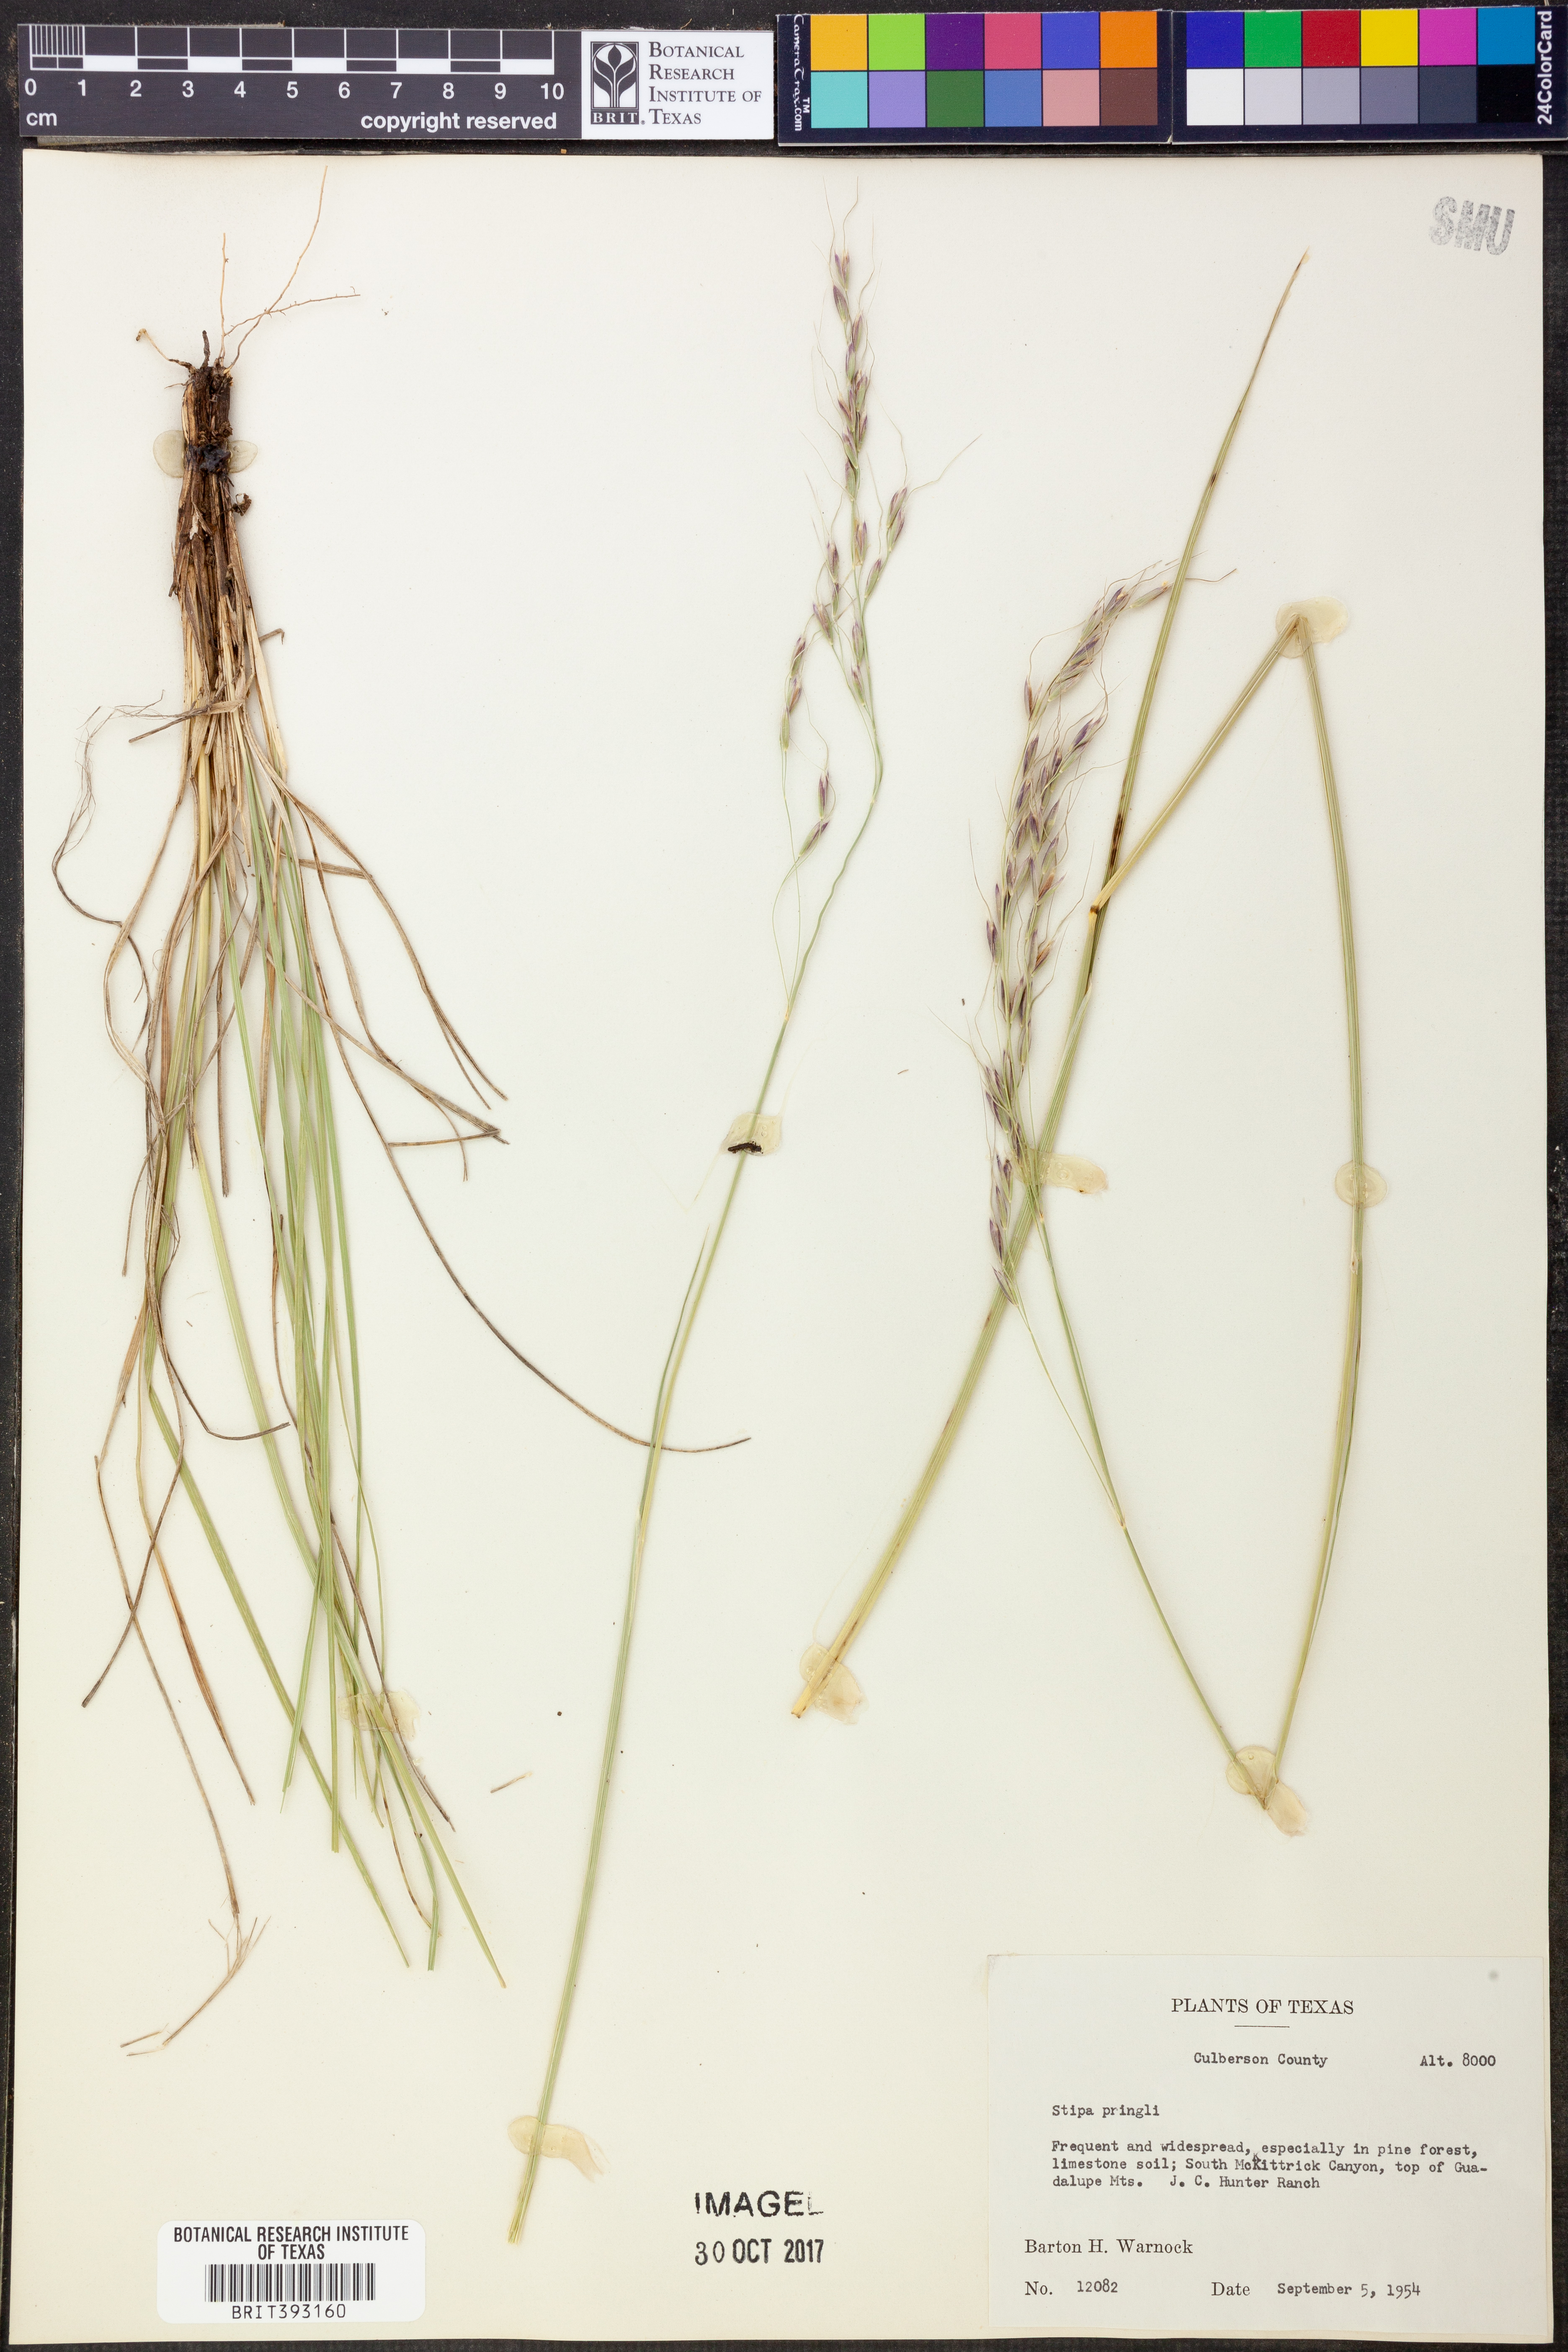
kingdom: Plantae
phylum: Tracheophyta
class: Liliopsida
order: Poales
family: Poaceae
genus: Piptochaetium
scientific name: Piptochaetium pringlei
